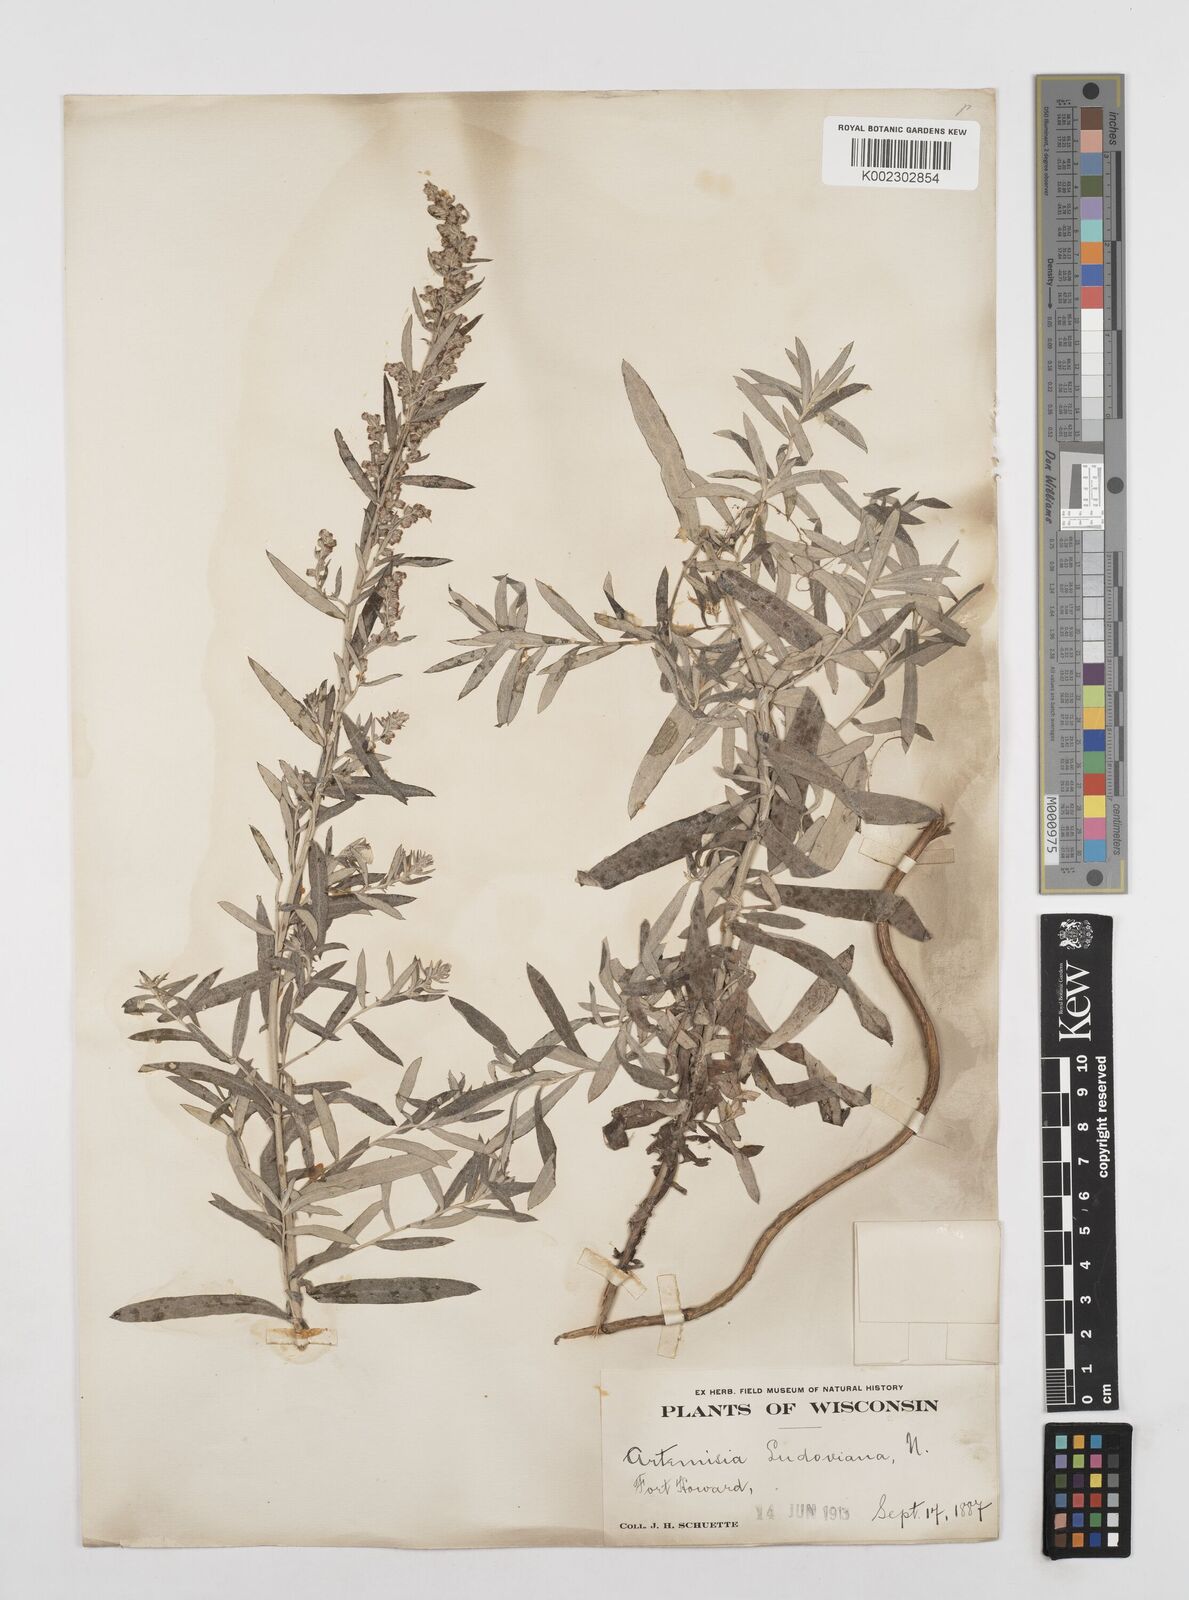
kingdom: Plantae
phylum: Tracheophyta
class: Magnoliopsida
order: Asterales
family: Asteraceae
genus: Artemisia
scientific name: Artemisia ludoviciana
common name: Western mugwort
